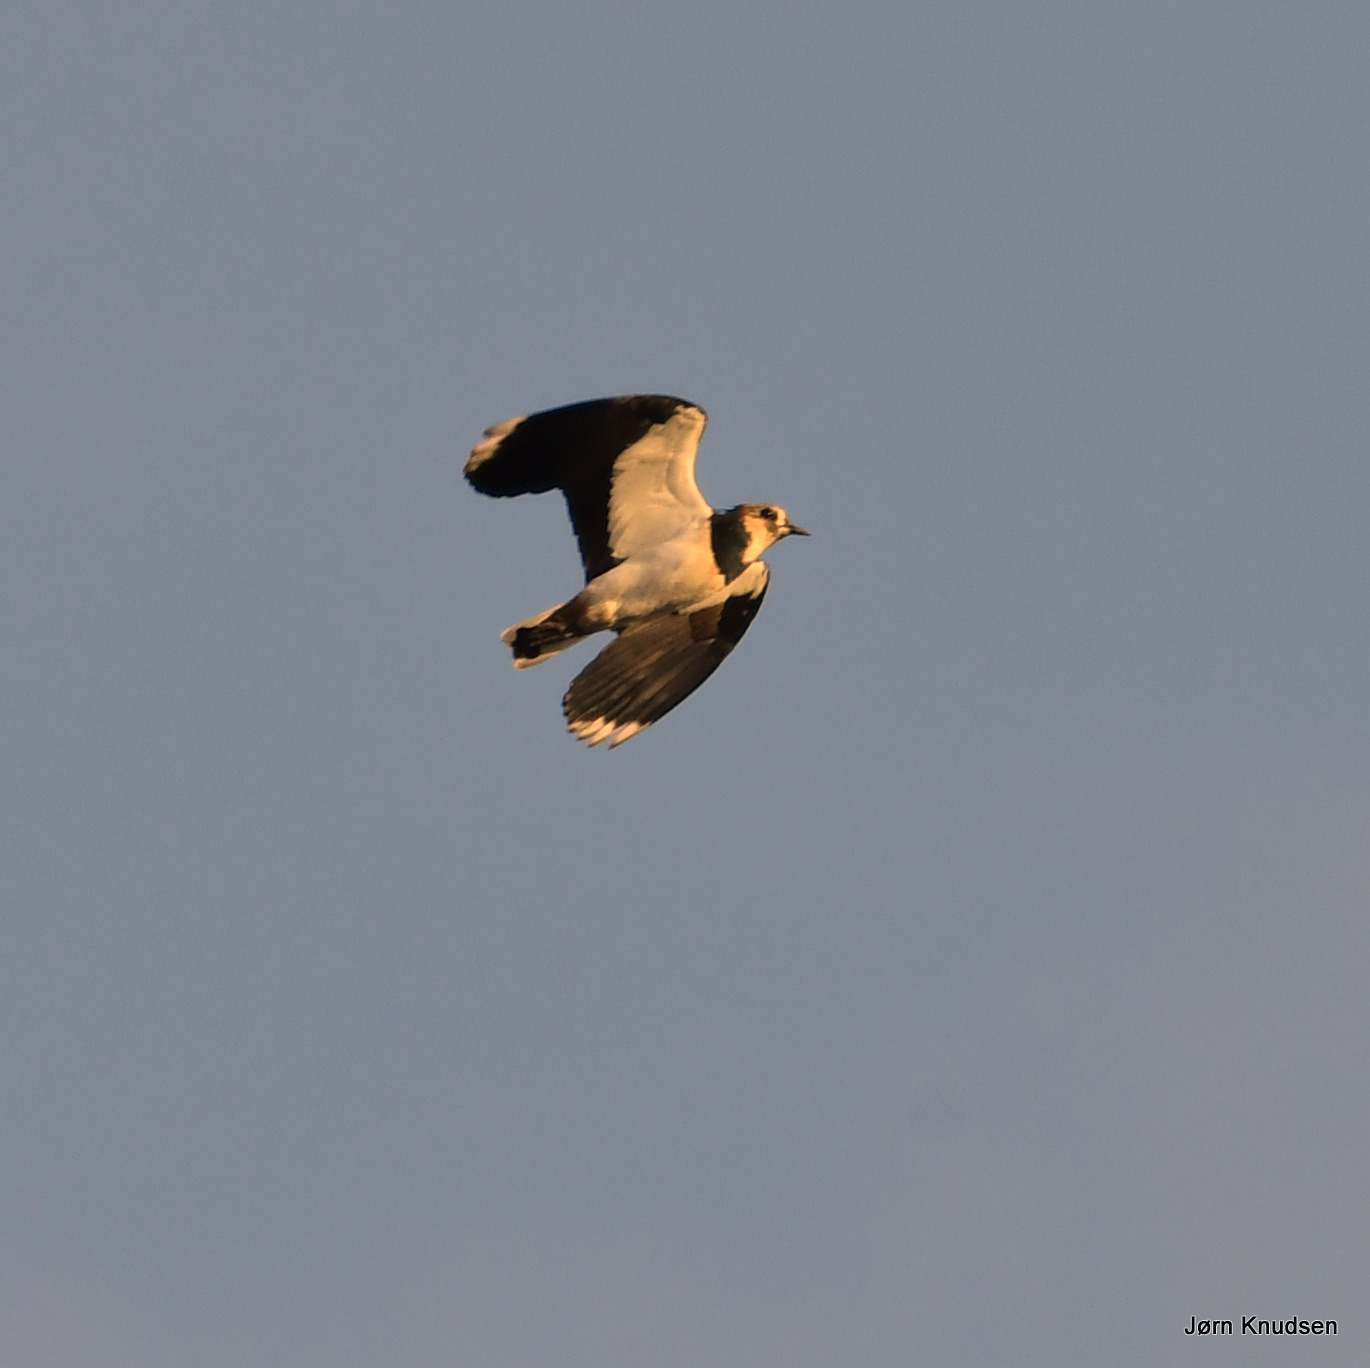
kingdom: Animalia
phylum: Chordata
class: Aves
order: Charadriiformes
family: Charadriidae
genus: Vanellus
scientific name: Vanellus vanellus
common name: Vibe
